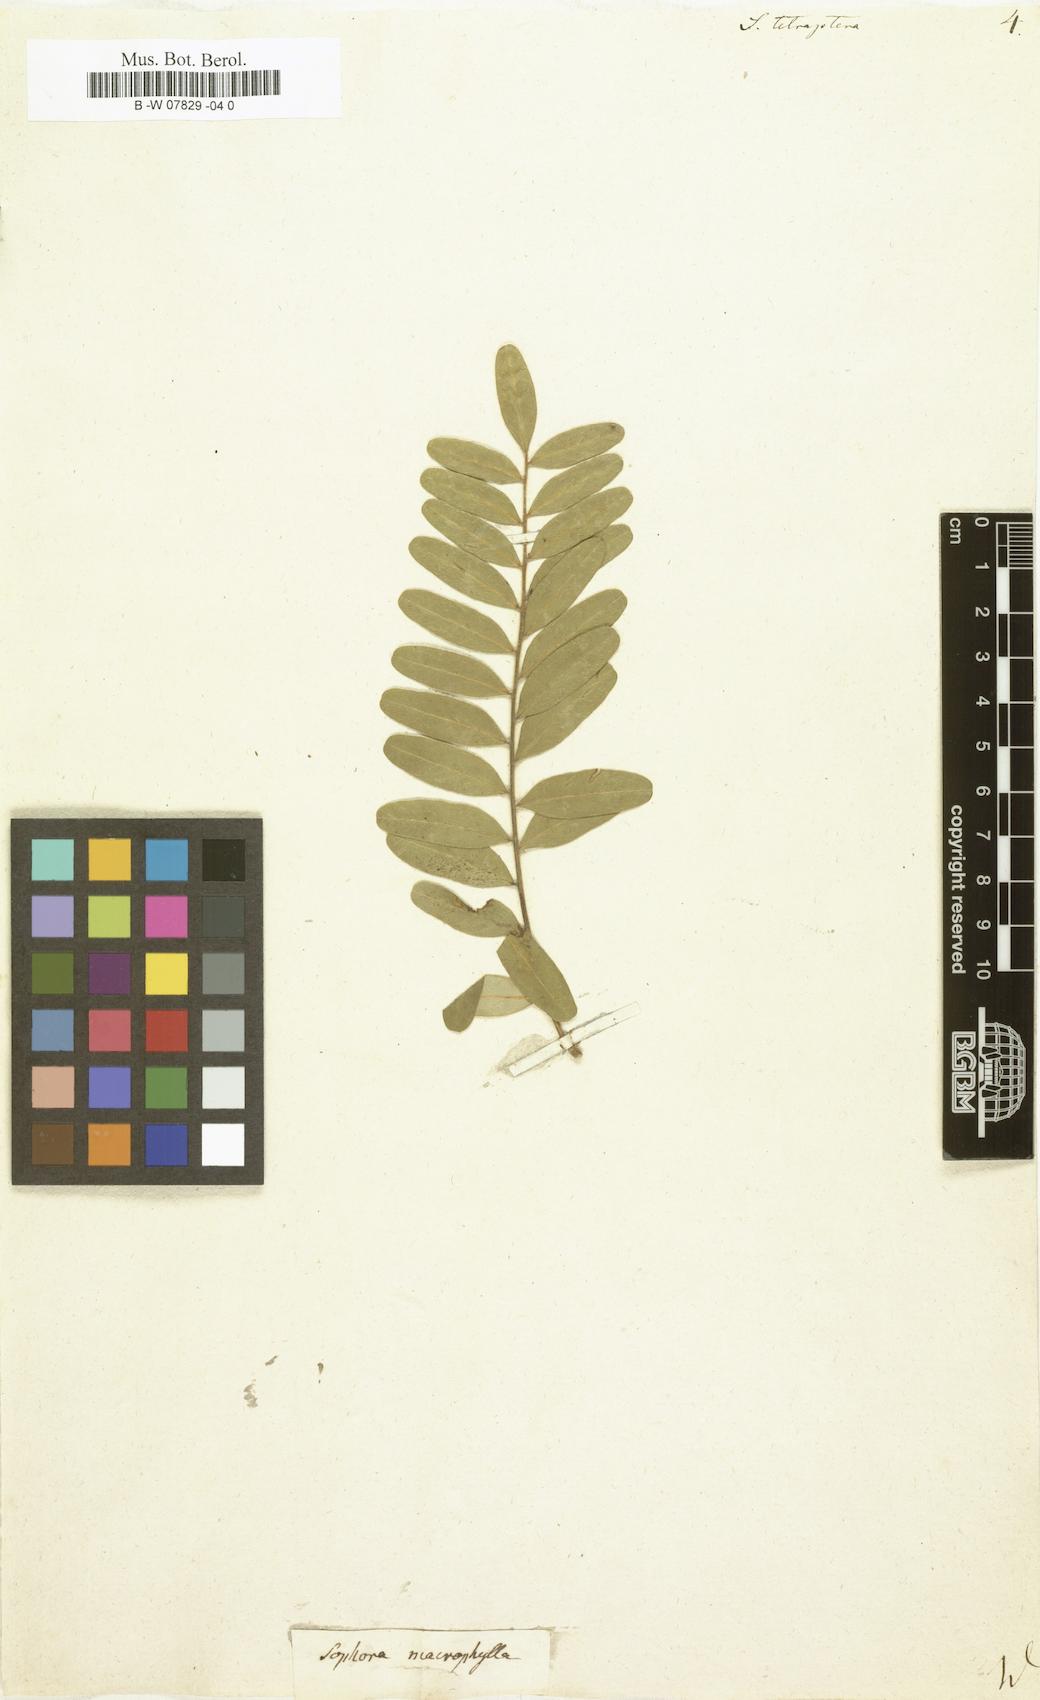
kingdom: Plantae
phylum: Tracheophyta
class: Magnoliopsida
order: Fabales
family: Fabaceae
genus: Sophora
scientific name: Sophora tetraptera
